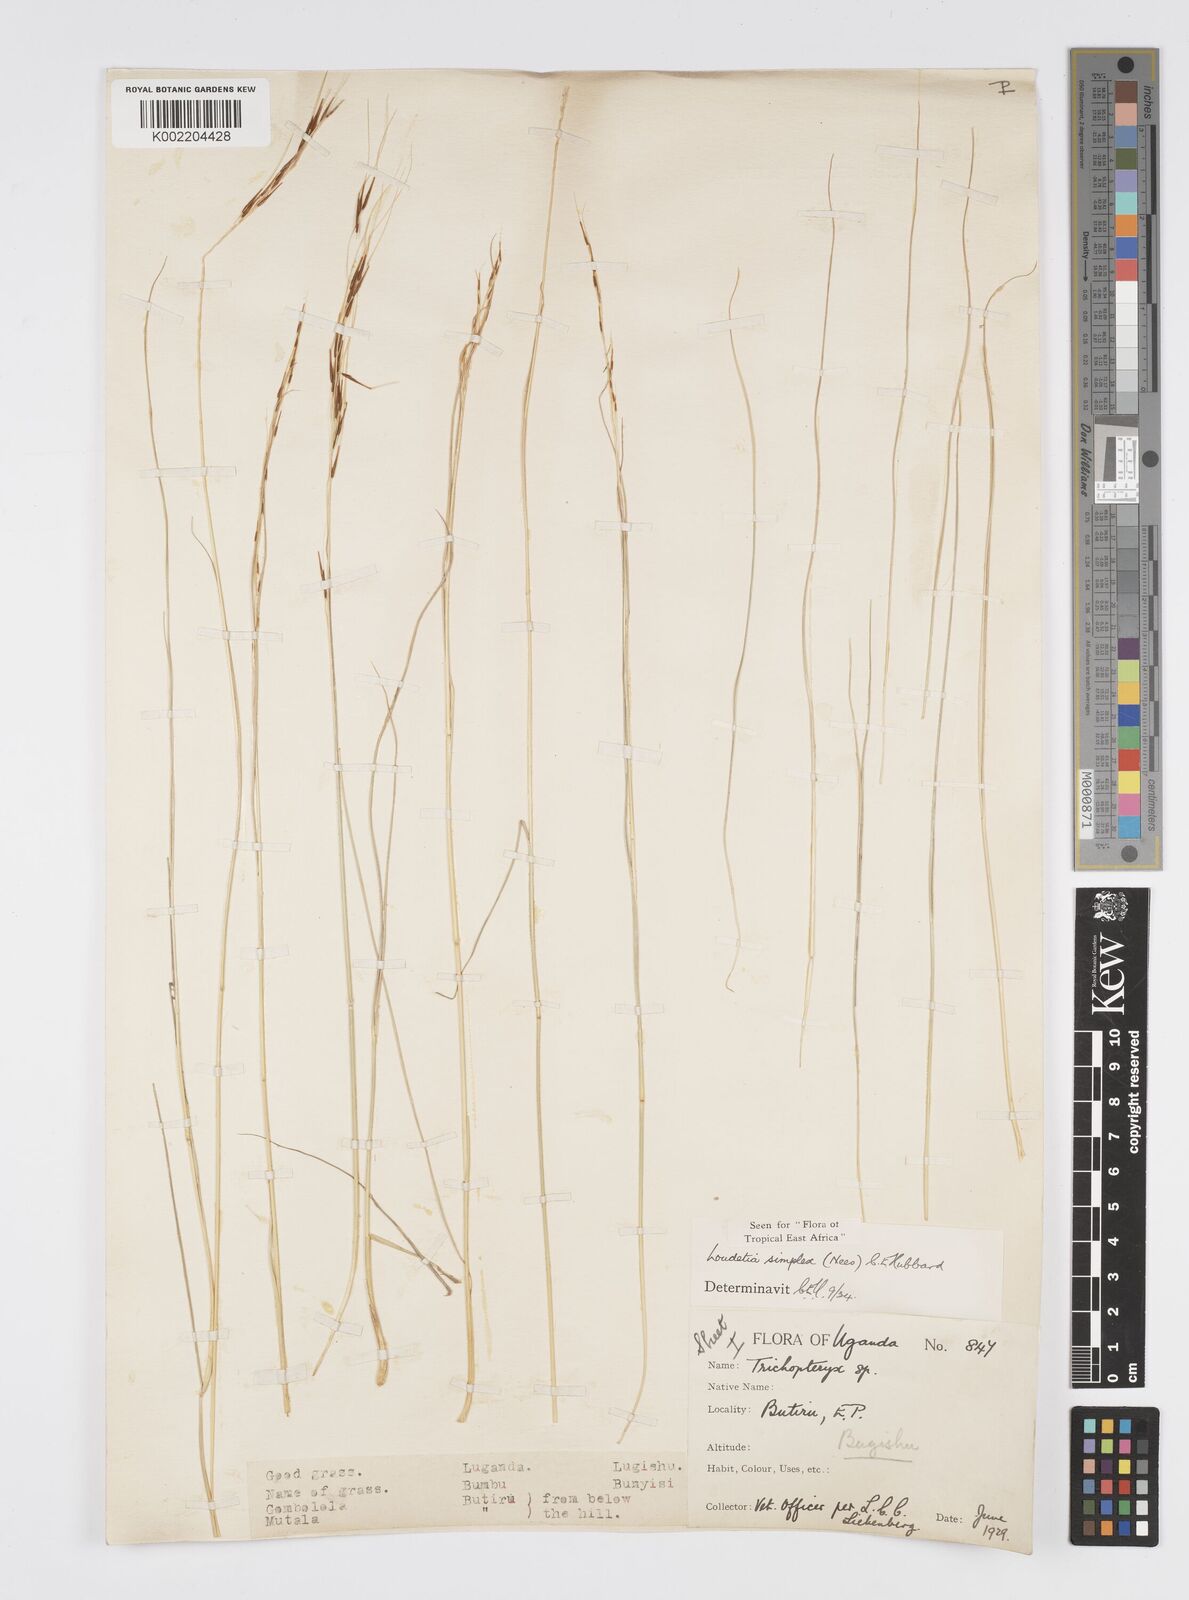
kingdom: Plantae
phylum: Tracheophyta
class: Liliopsida
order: Poales
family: Poaceae
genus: Loudetia
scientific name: Loudetia simplex
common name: Common russet grass
